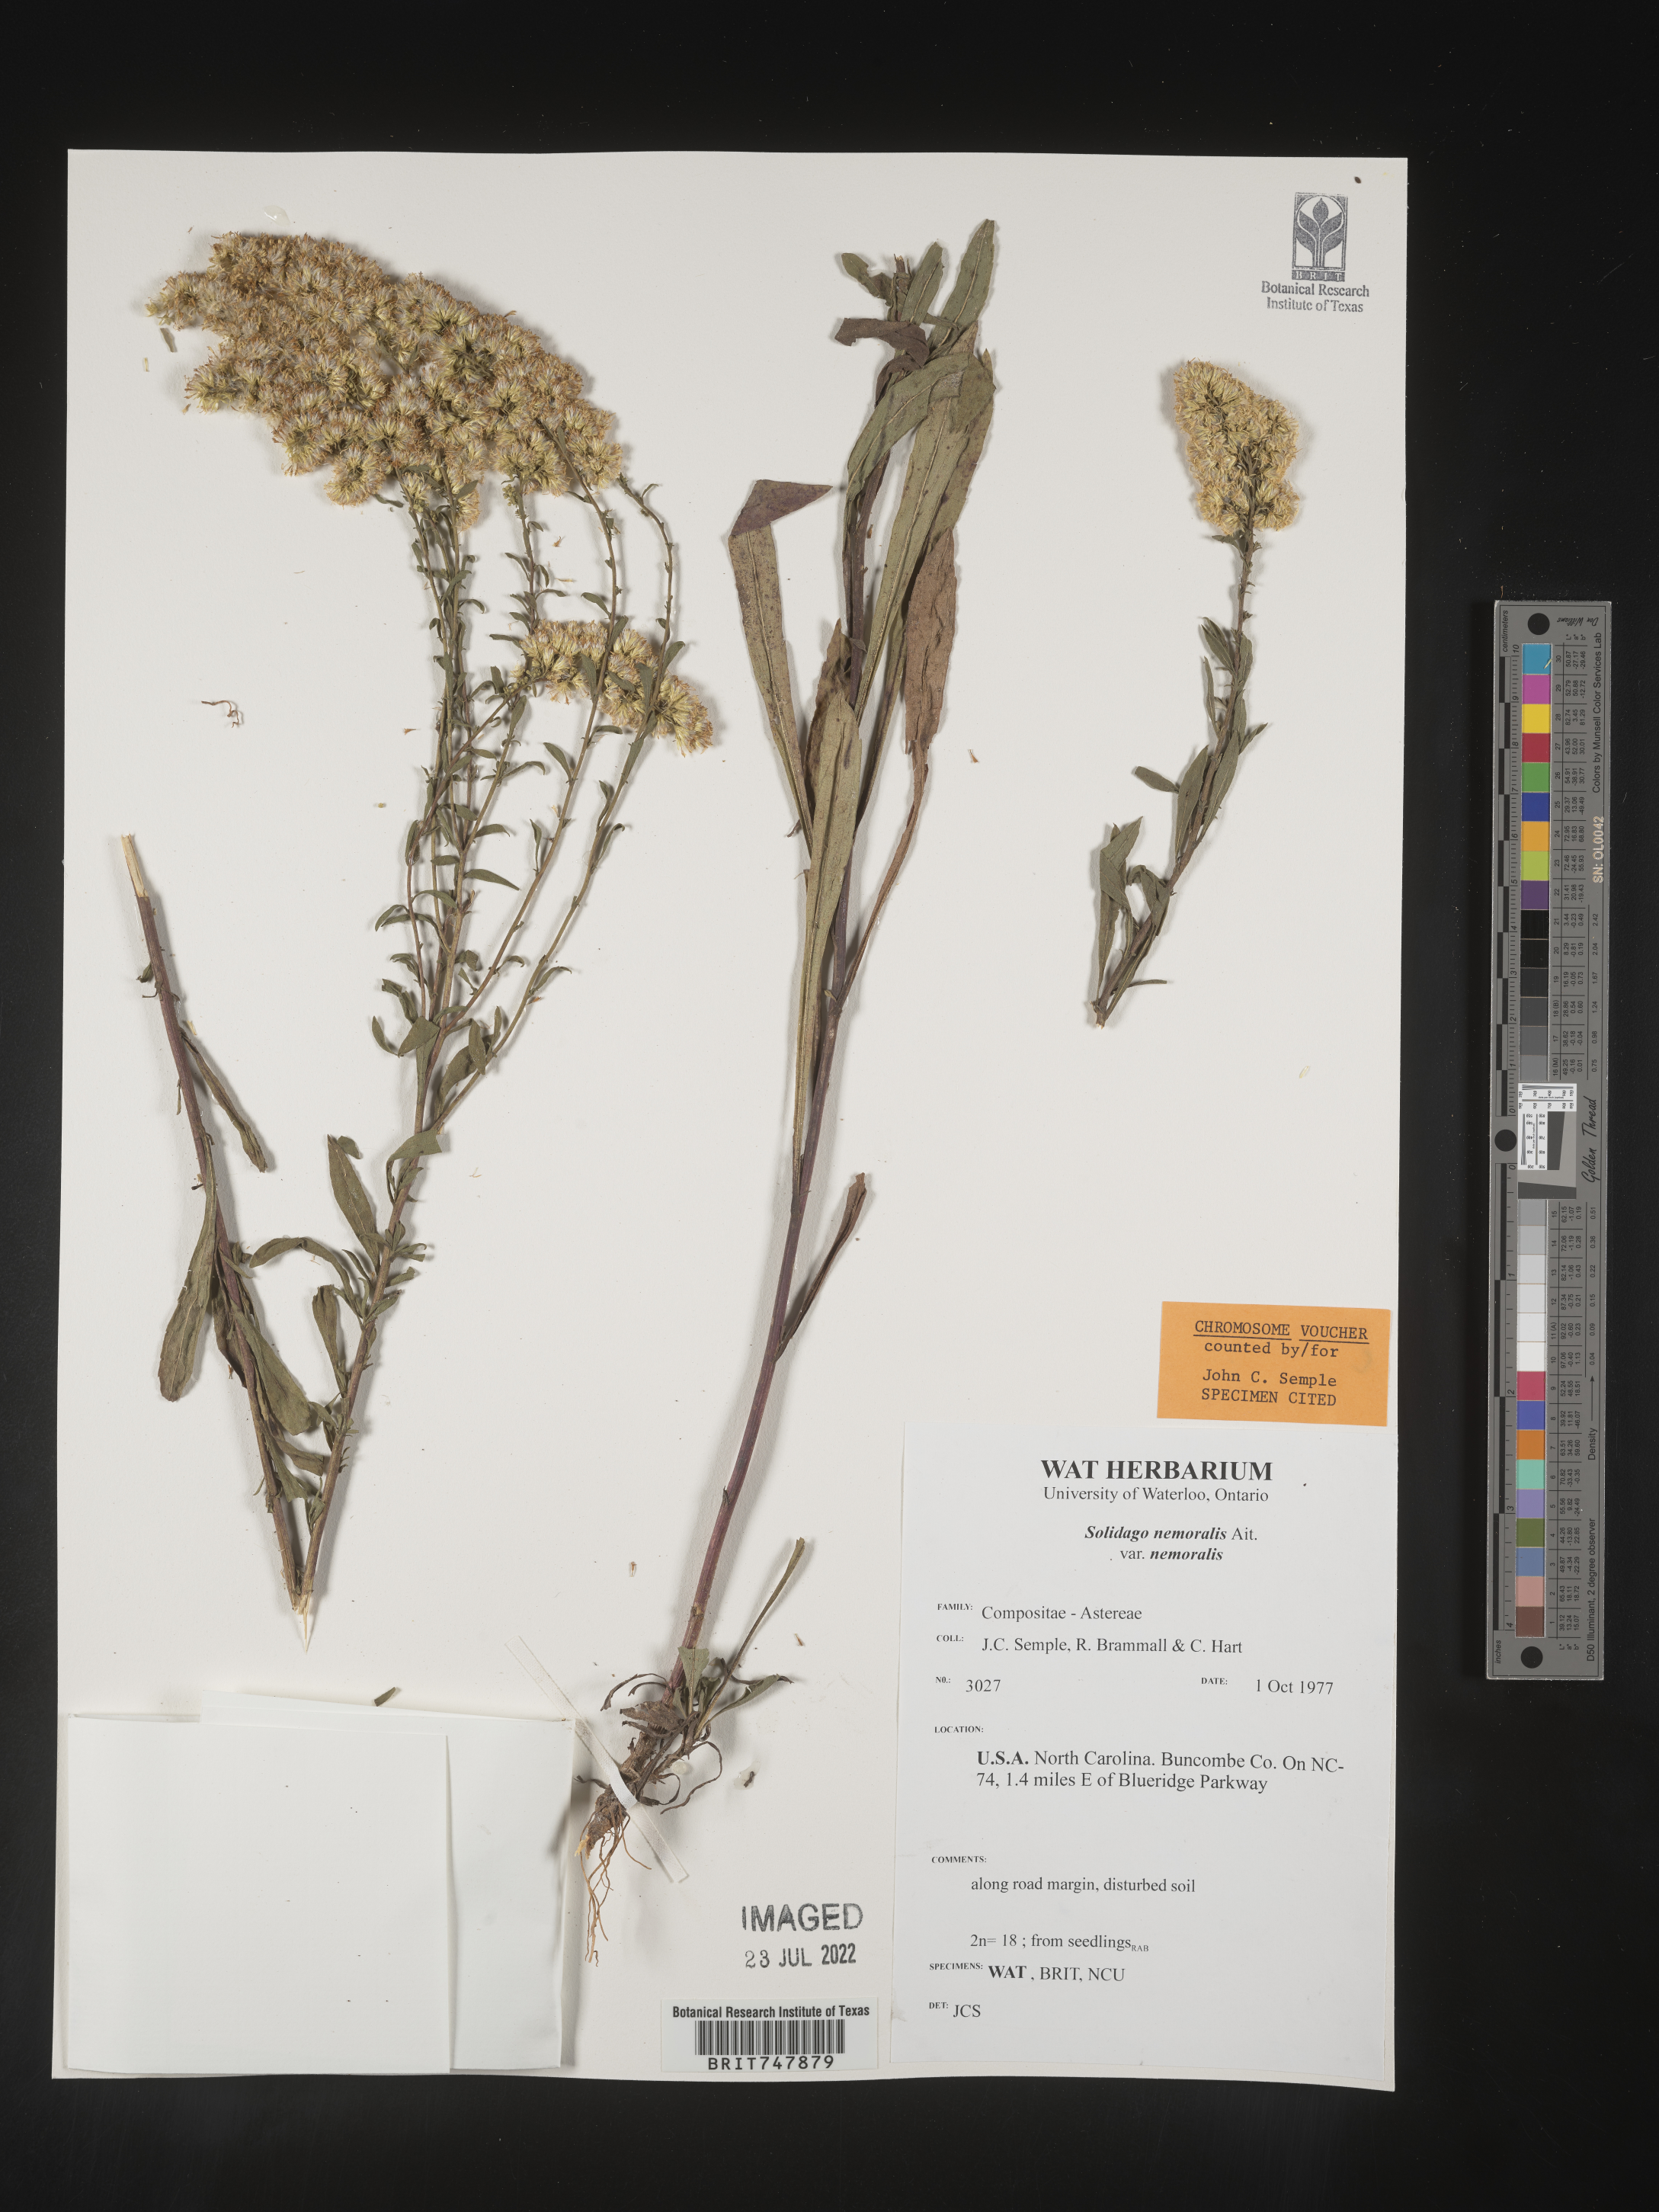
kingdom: Plantae
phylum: Tracheophyta
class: Magnoliopsida
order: Asterales
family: Asteraceae
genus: Solidago
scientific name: Solidago nemoralis
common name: Grey goldenrod
